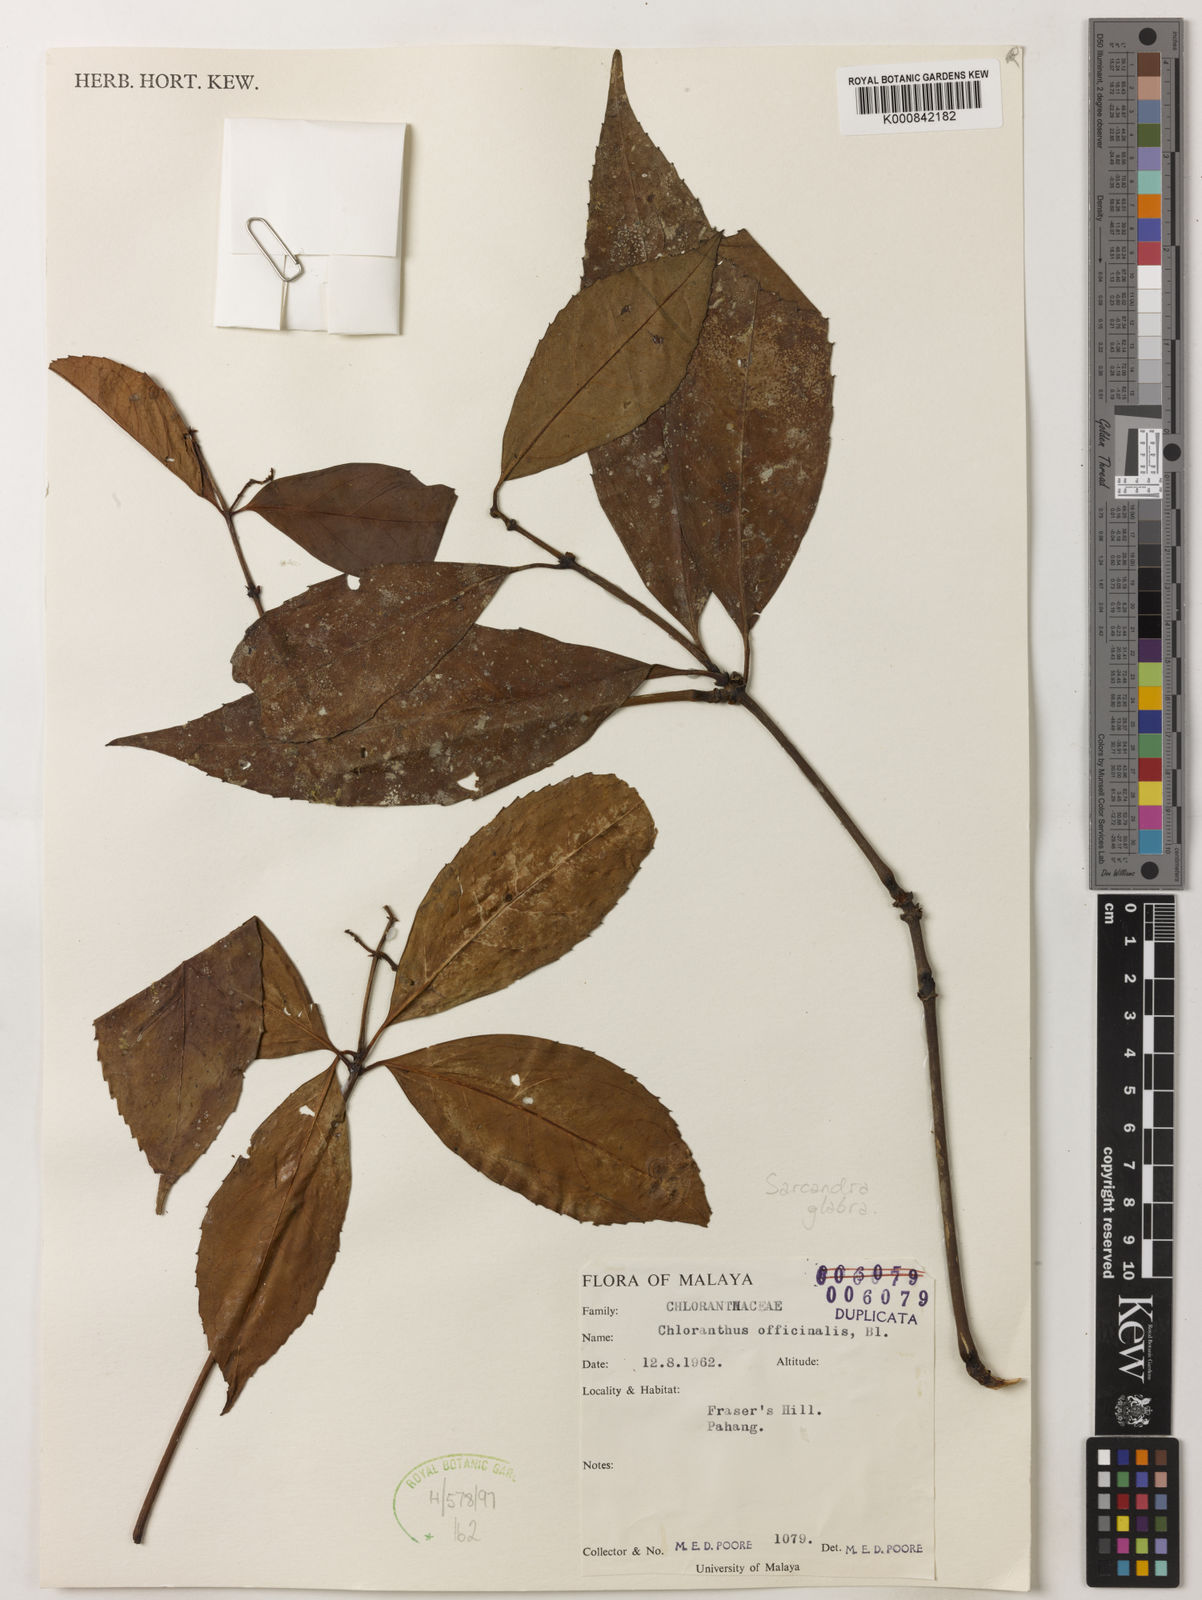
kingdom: Plantae
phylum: Tracheophyta
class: Magnoliopsida
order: Chloranthales
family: Chloranthaceae
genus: Sarcandra
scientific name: Sarcandra glabra
